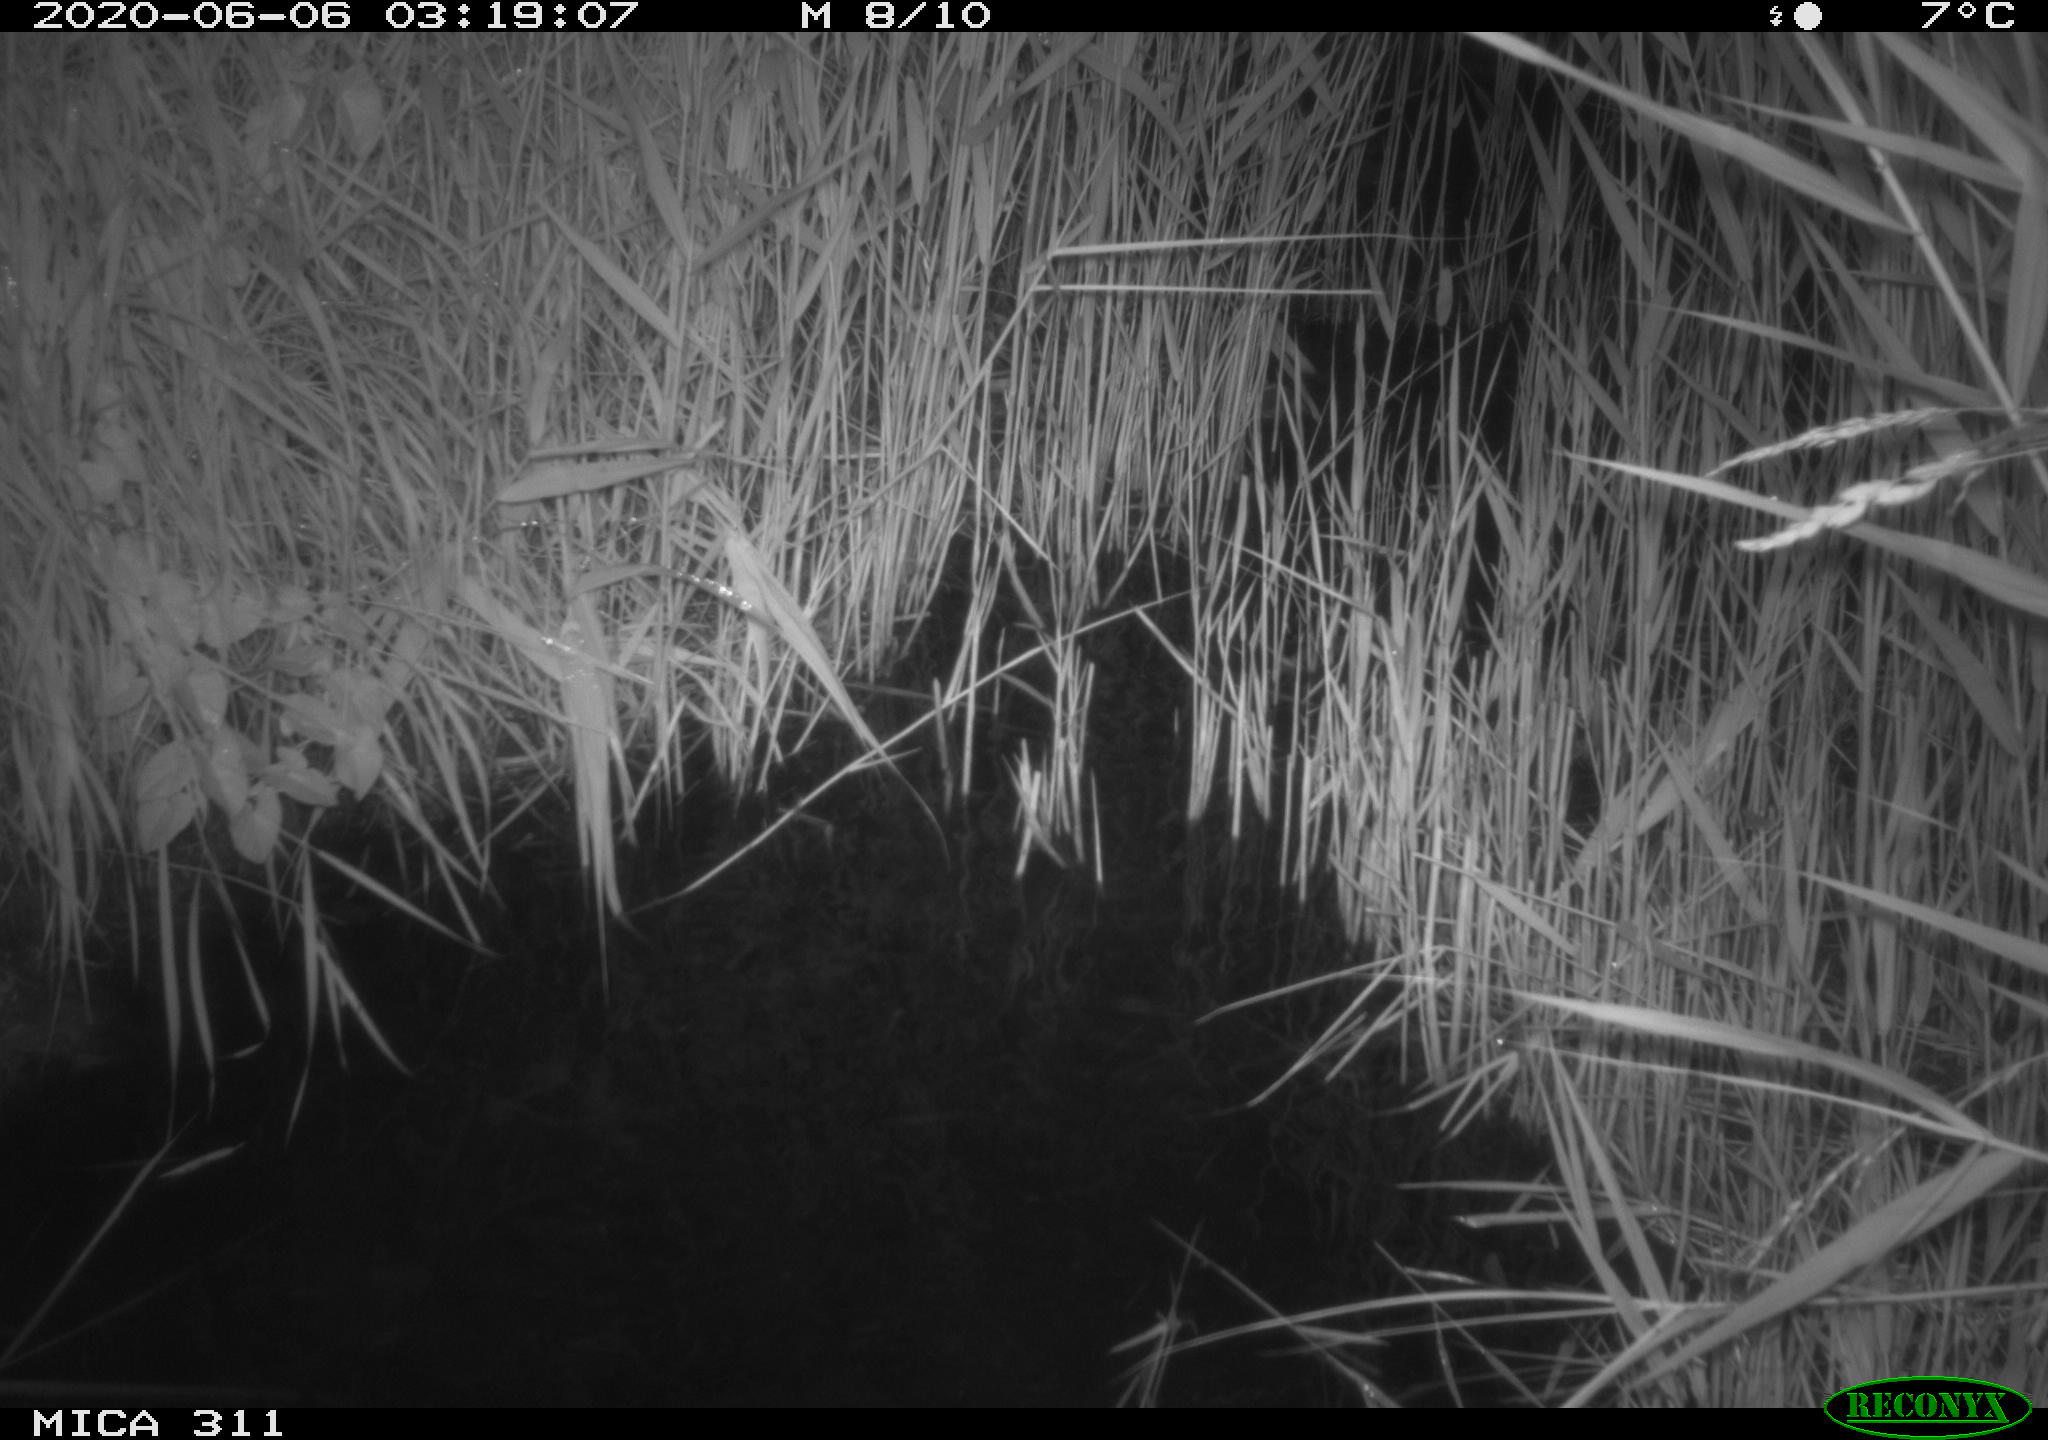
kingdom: Animalia
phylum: Chordata
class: Mammalia
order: Rodentia
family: Muridae
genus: Rattus
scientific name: Rattus norvegicus
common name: Brown rat
